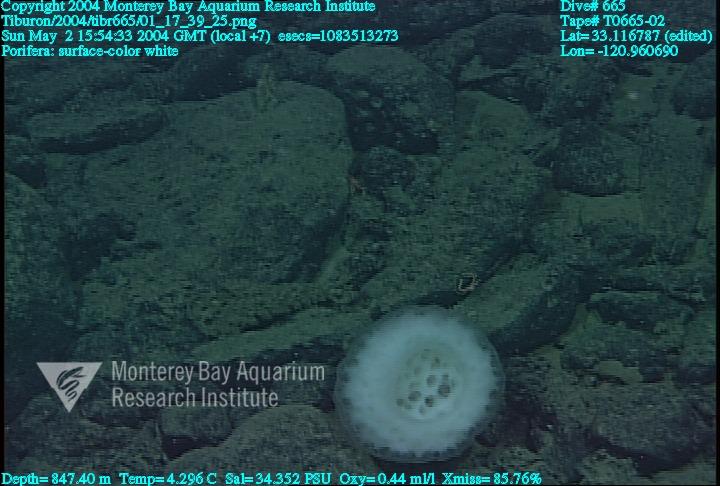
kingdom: Animalia
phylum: Porifera
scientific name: Porifera
